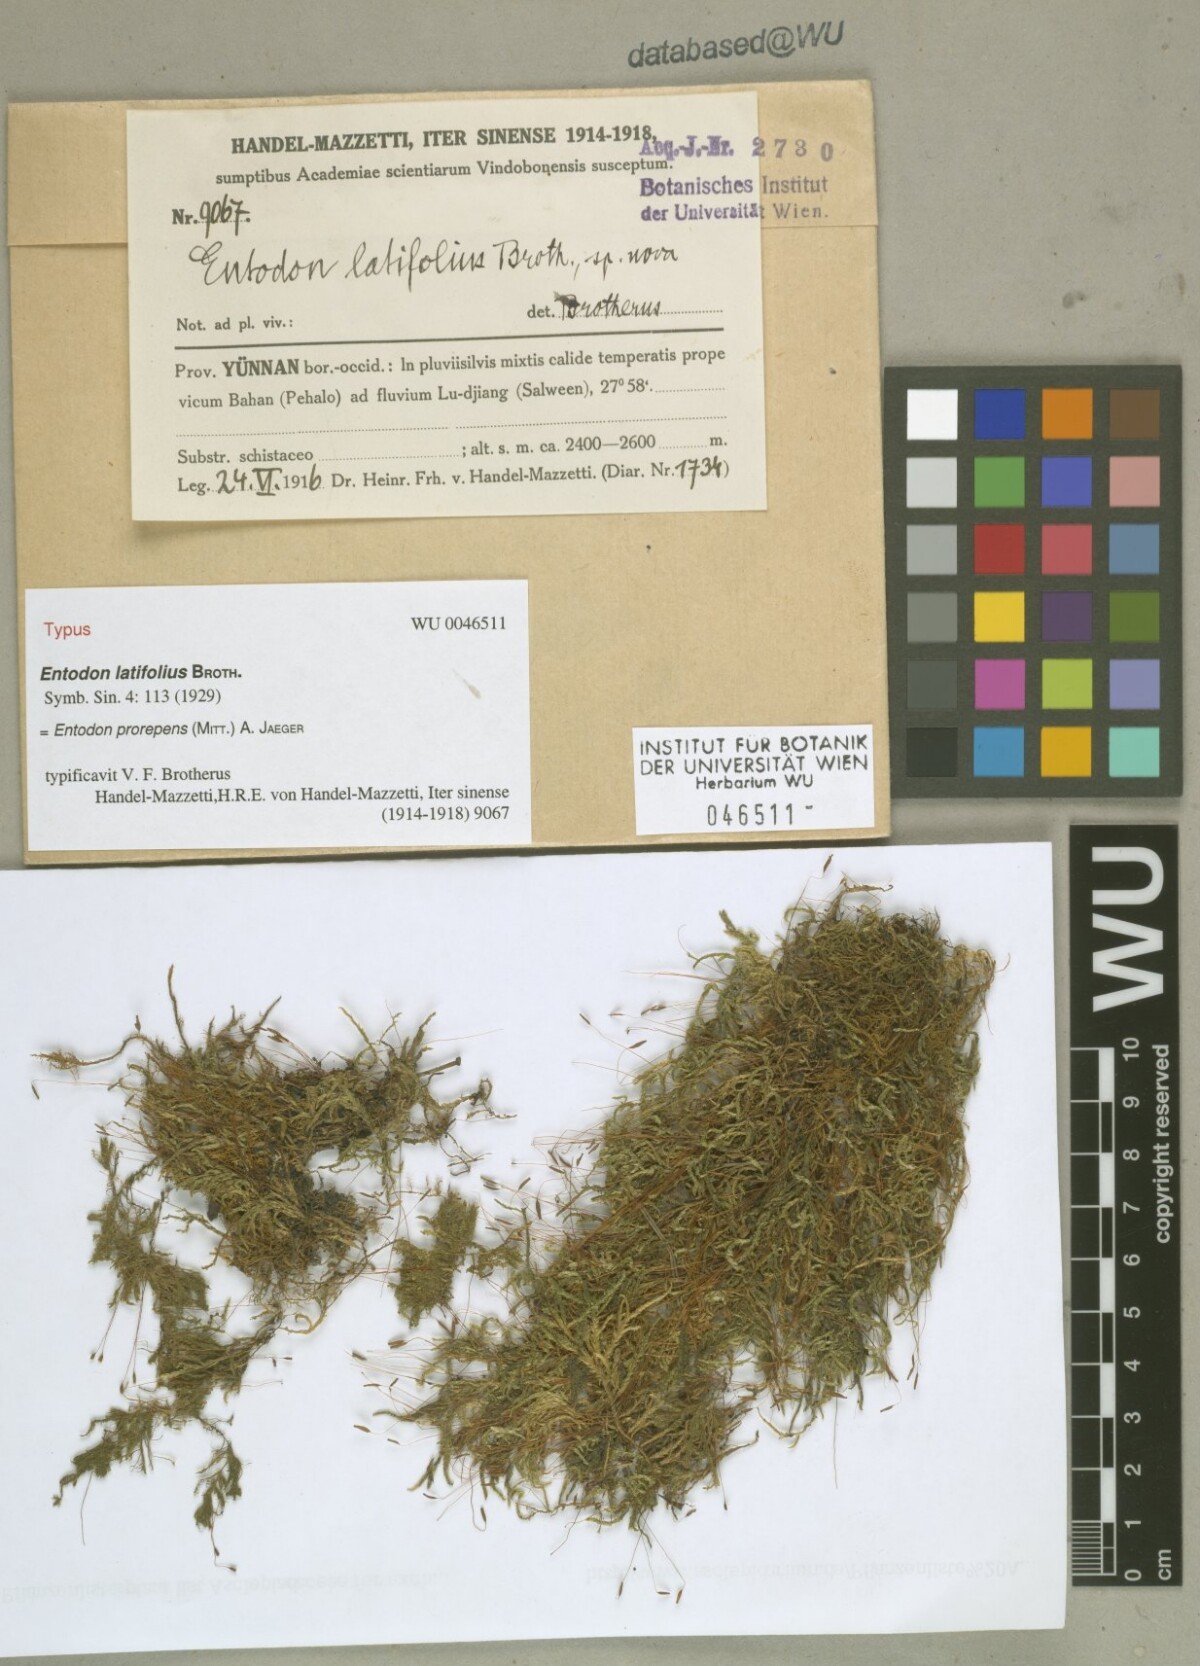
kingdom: Plantae
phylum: Bryophyta
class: Bryopsida
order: Hypnales
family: Entodontaceae
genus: Entodon
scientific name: Entodon prorepens
